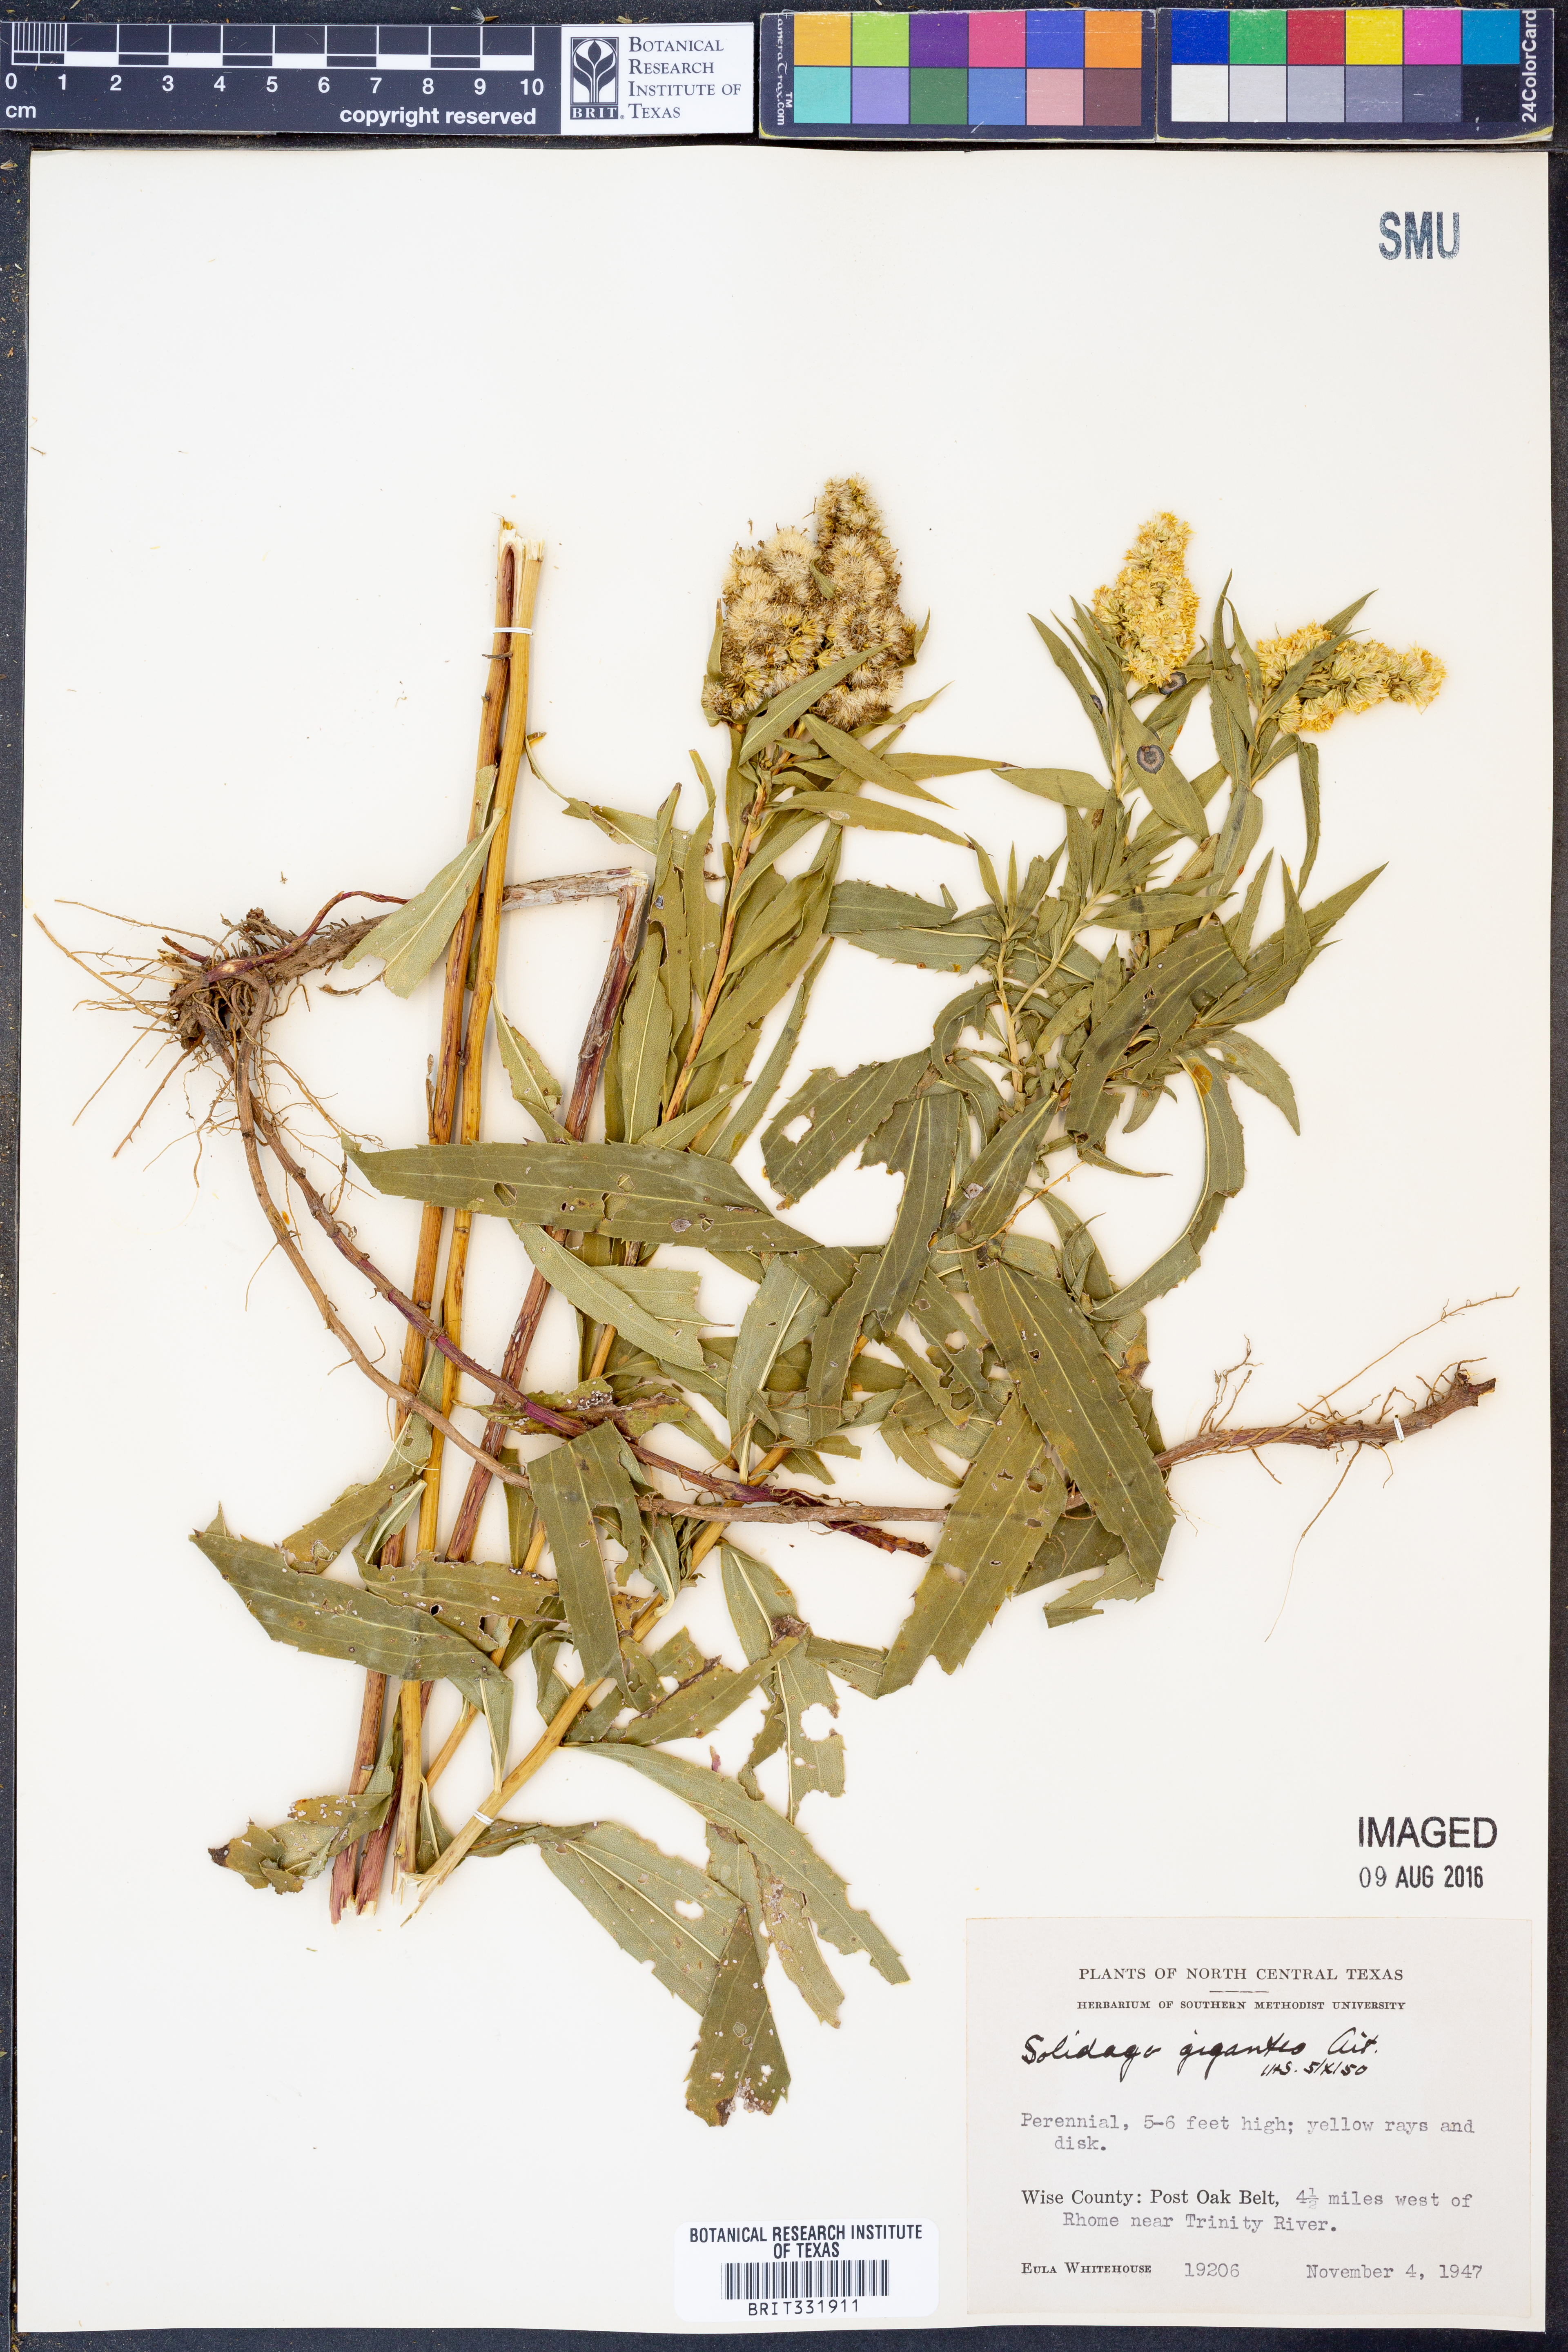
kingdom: Plantae
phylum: Tracheophyta
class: Magnoliopsida
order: Asterales
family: Asteraceae
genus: Solidago
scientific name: Solidago gigantea
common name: Giant goldenrod
